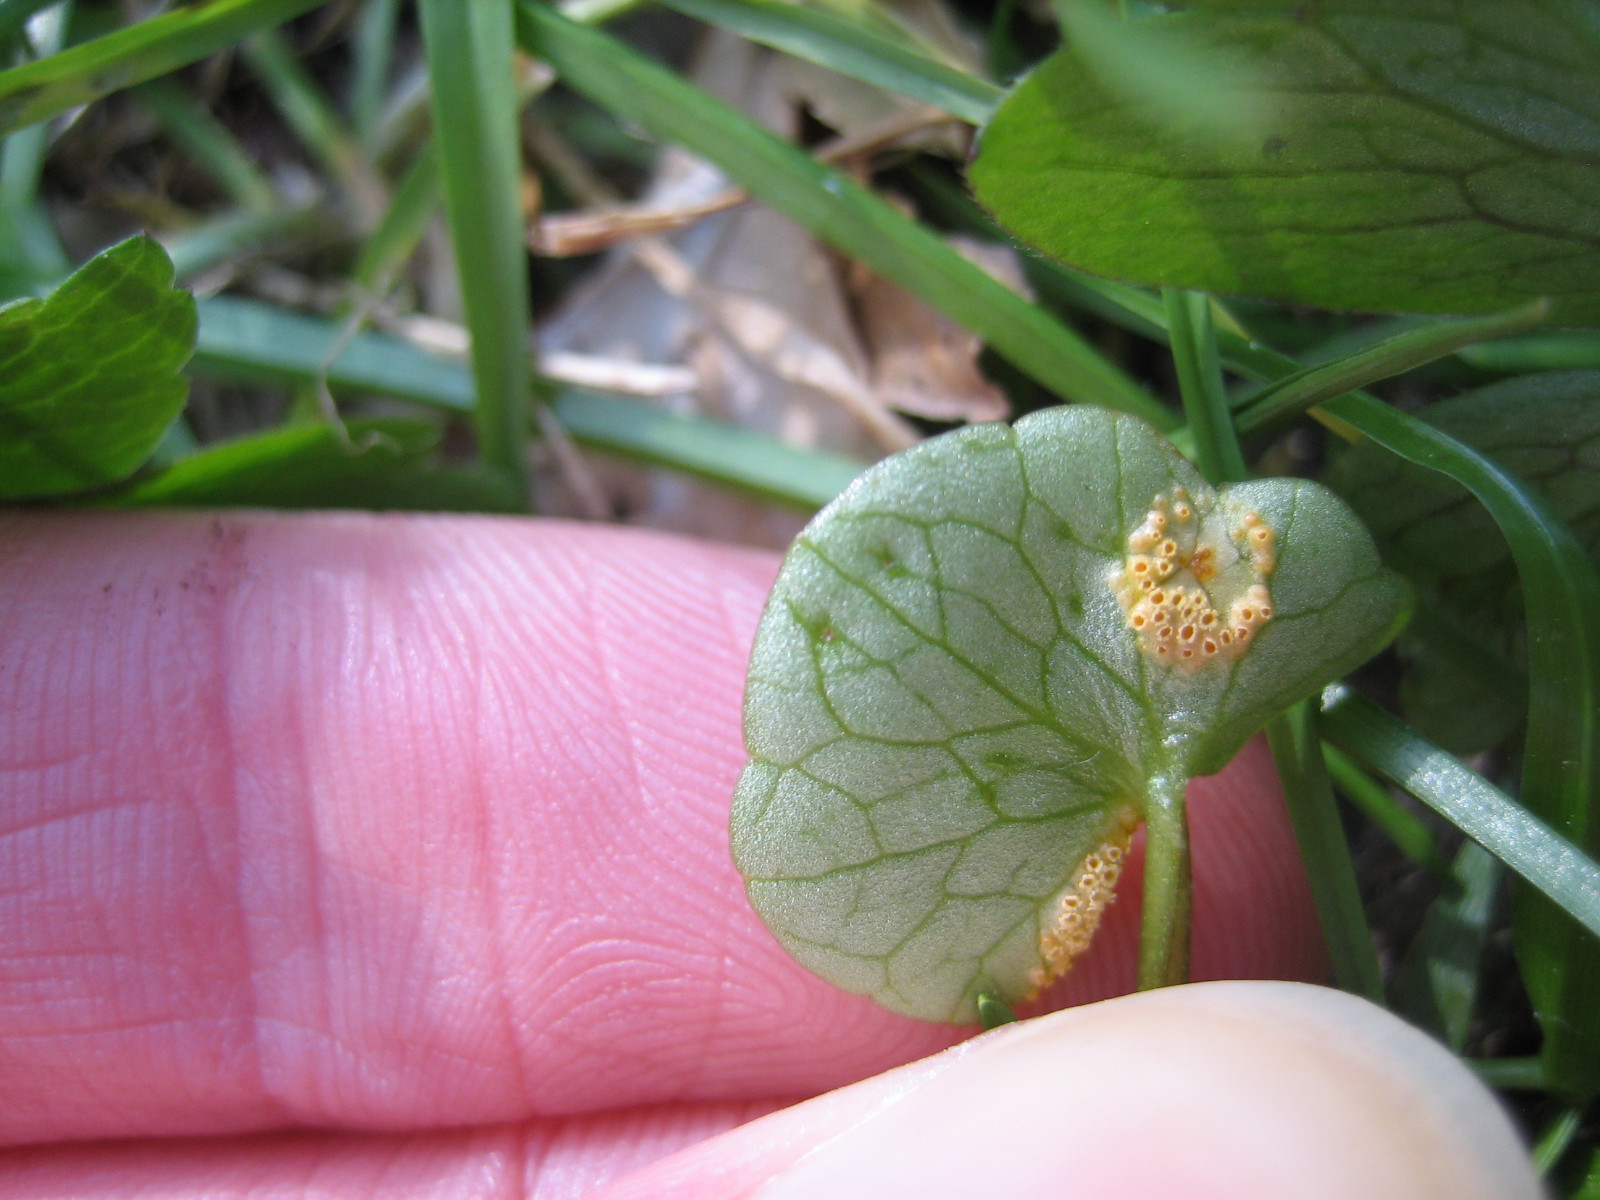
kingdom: Fungi
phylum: Basidiomycota
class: Pucciniomycetes
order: Pucciniales
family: Pucciniaceae
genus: Uromyces
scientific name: Uromyces dactylidis
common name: ranunkel-encellerust
